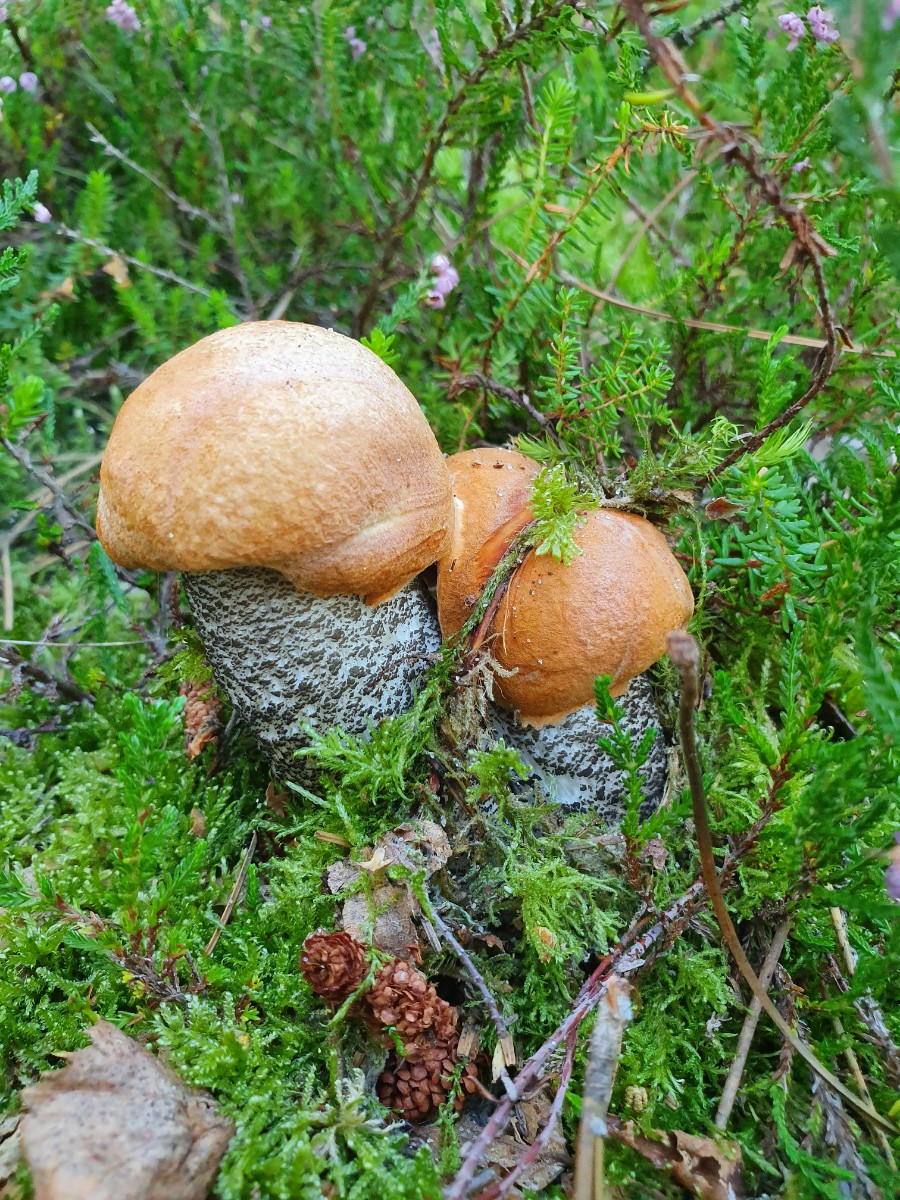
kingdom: Fungi
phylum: Basidiomycota
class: Agaricomycetes
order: Boletales
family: Boletaceae
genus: Leccinum
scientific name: Leccinum versipelle
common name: orange skælrørhat
